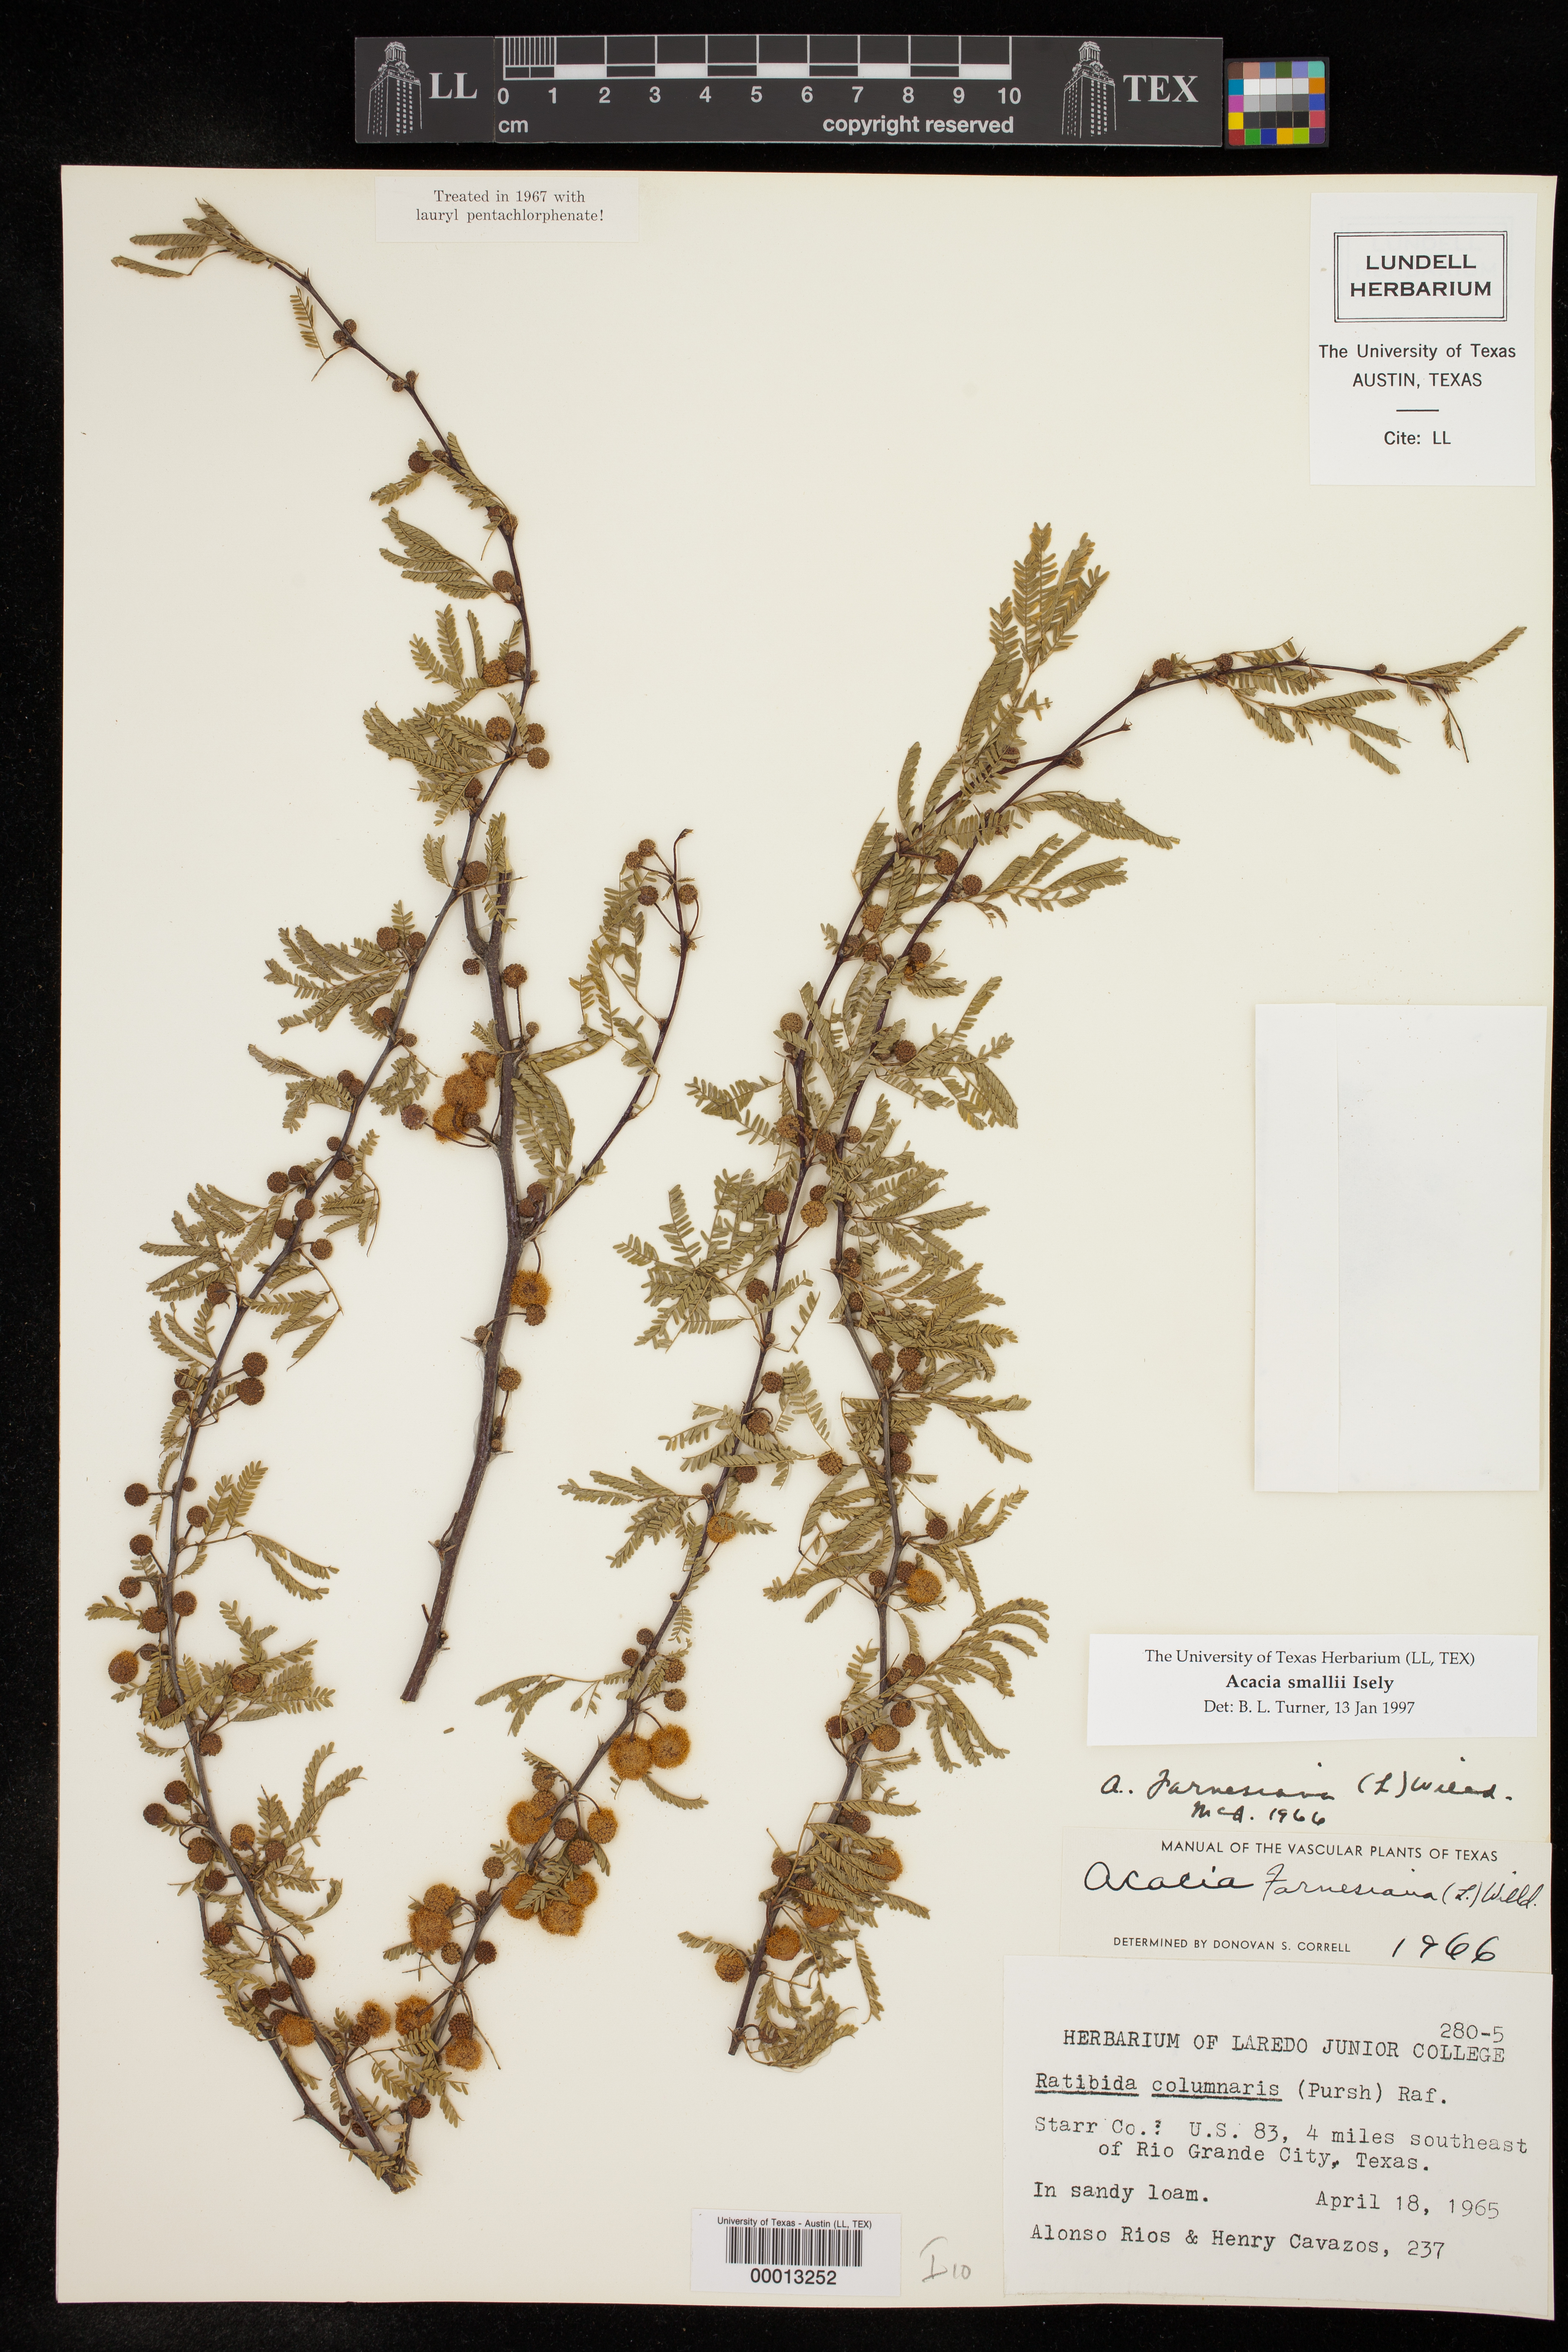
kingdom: Plantae
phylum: Tracheophyta
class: Magnoliopsida
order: Fabales
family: Fabaceae
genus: Vachellia
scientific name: Vachellia farnesiana
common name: Sweet acacia
